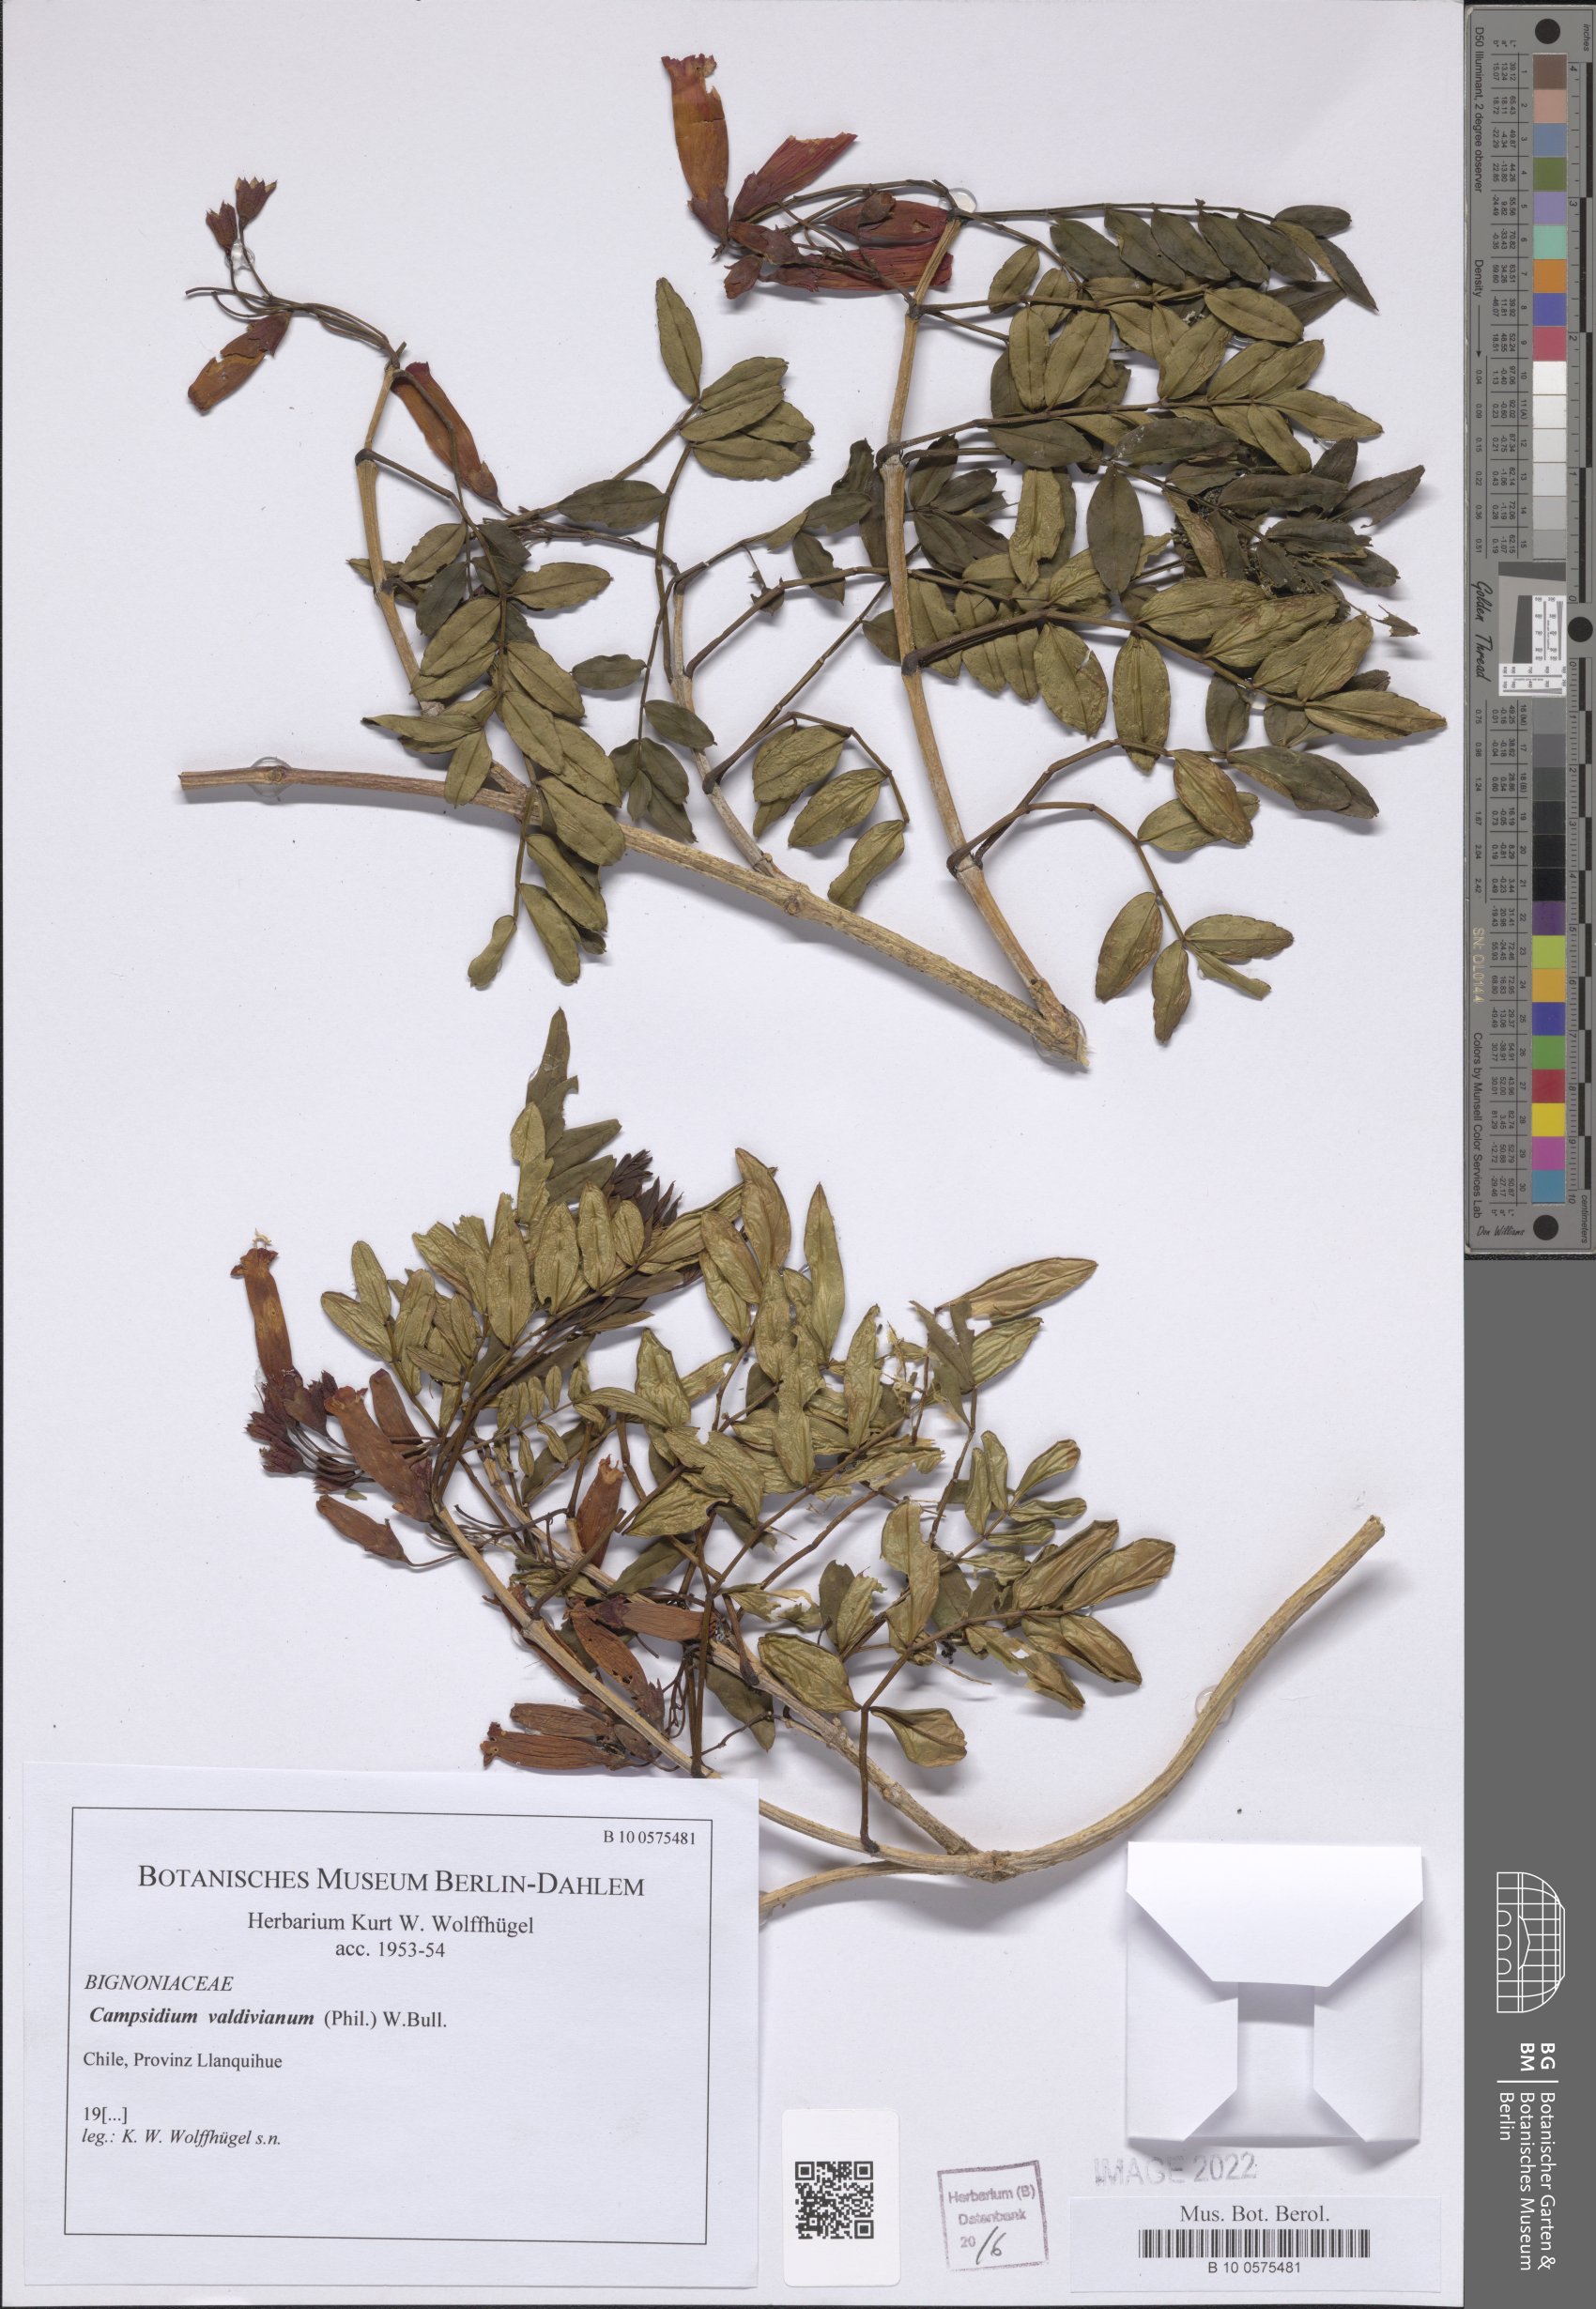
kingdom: Plantae
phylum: Tracheophyta
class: Magnoliopsida
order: Lamiales
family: Bignoniaceae
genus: Campsidium
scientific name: Campsidium valdivianum
